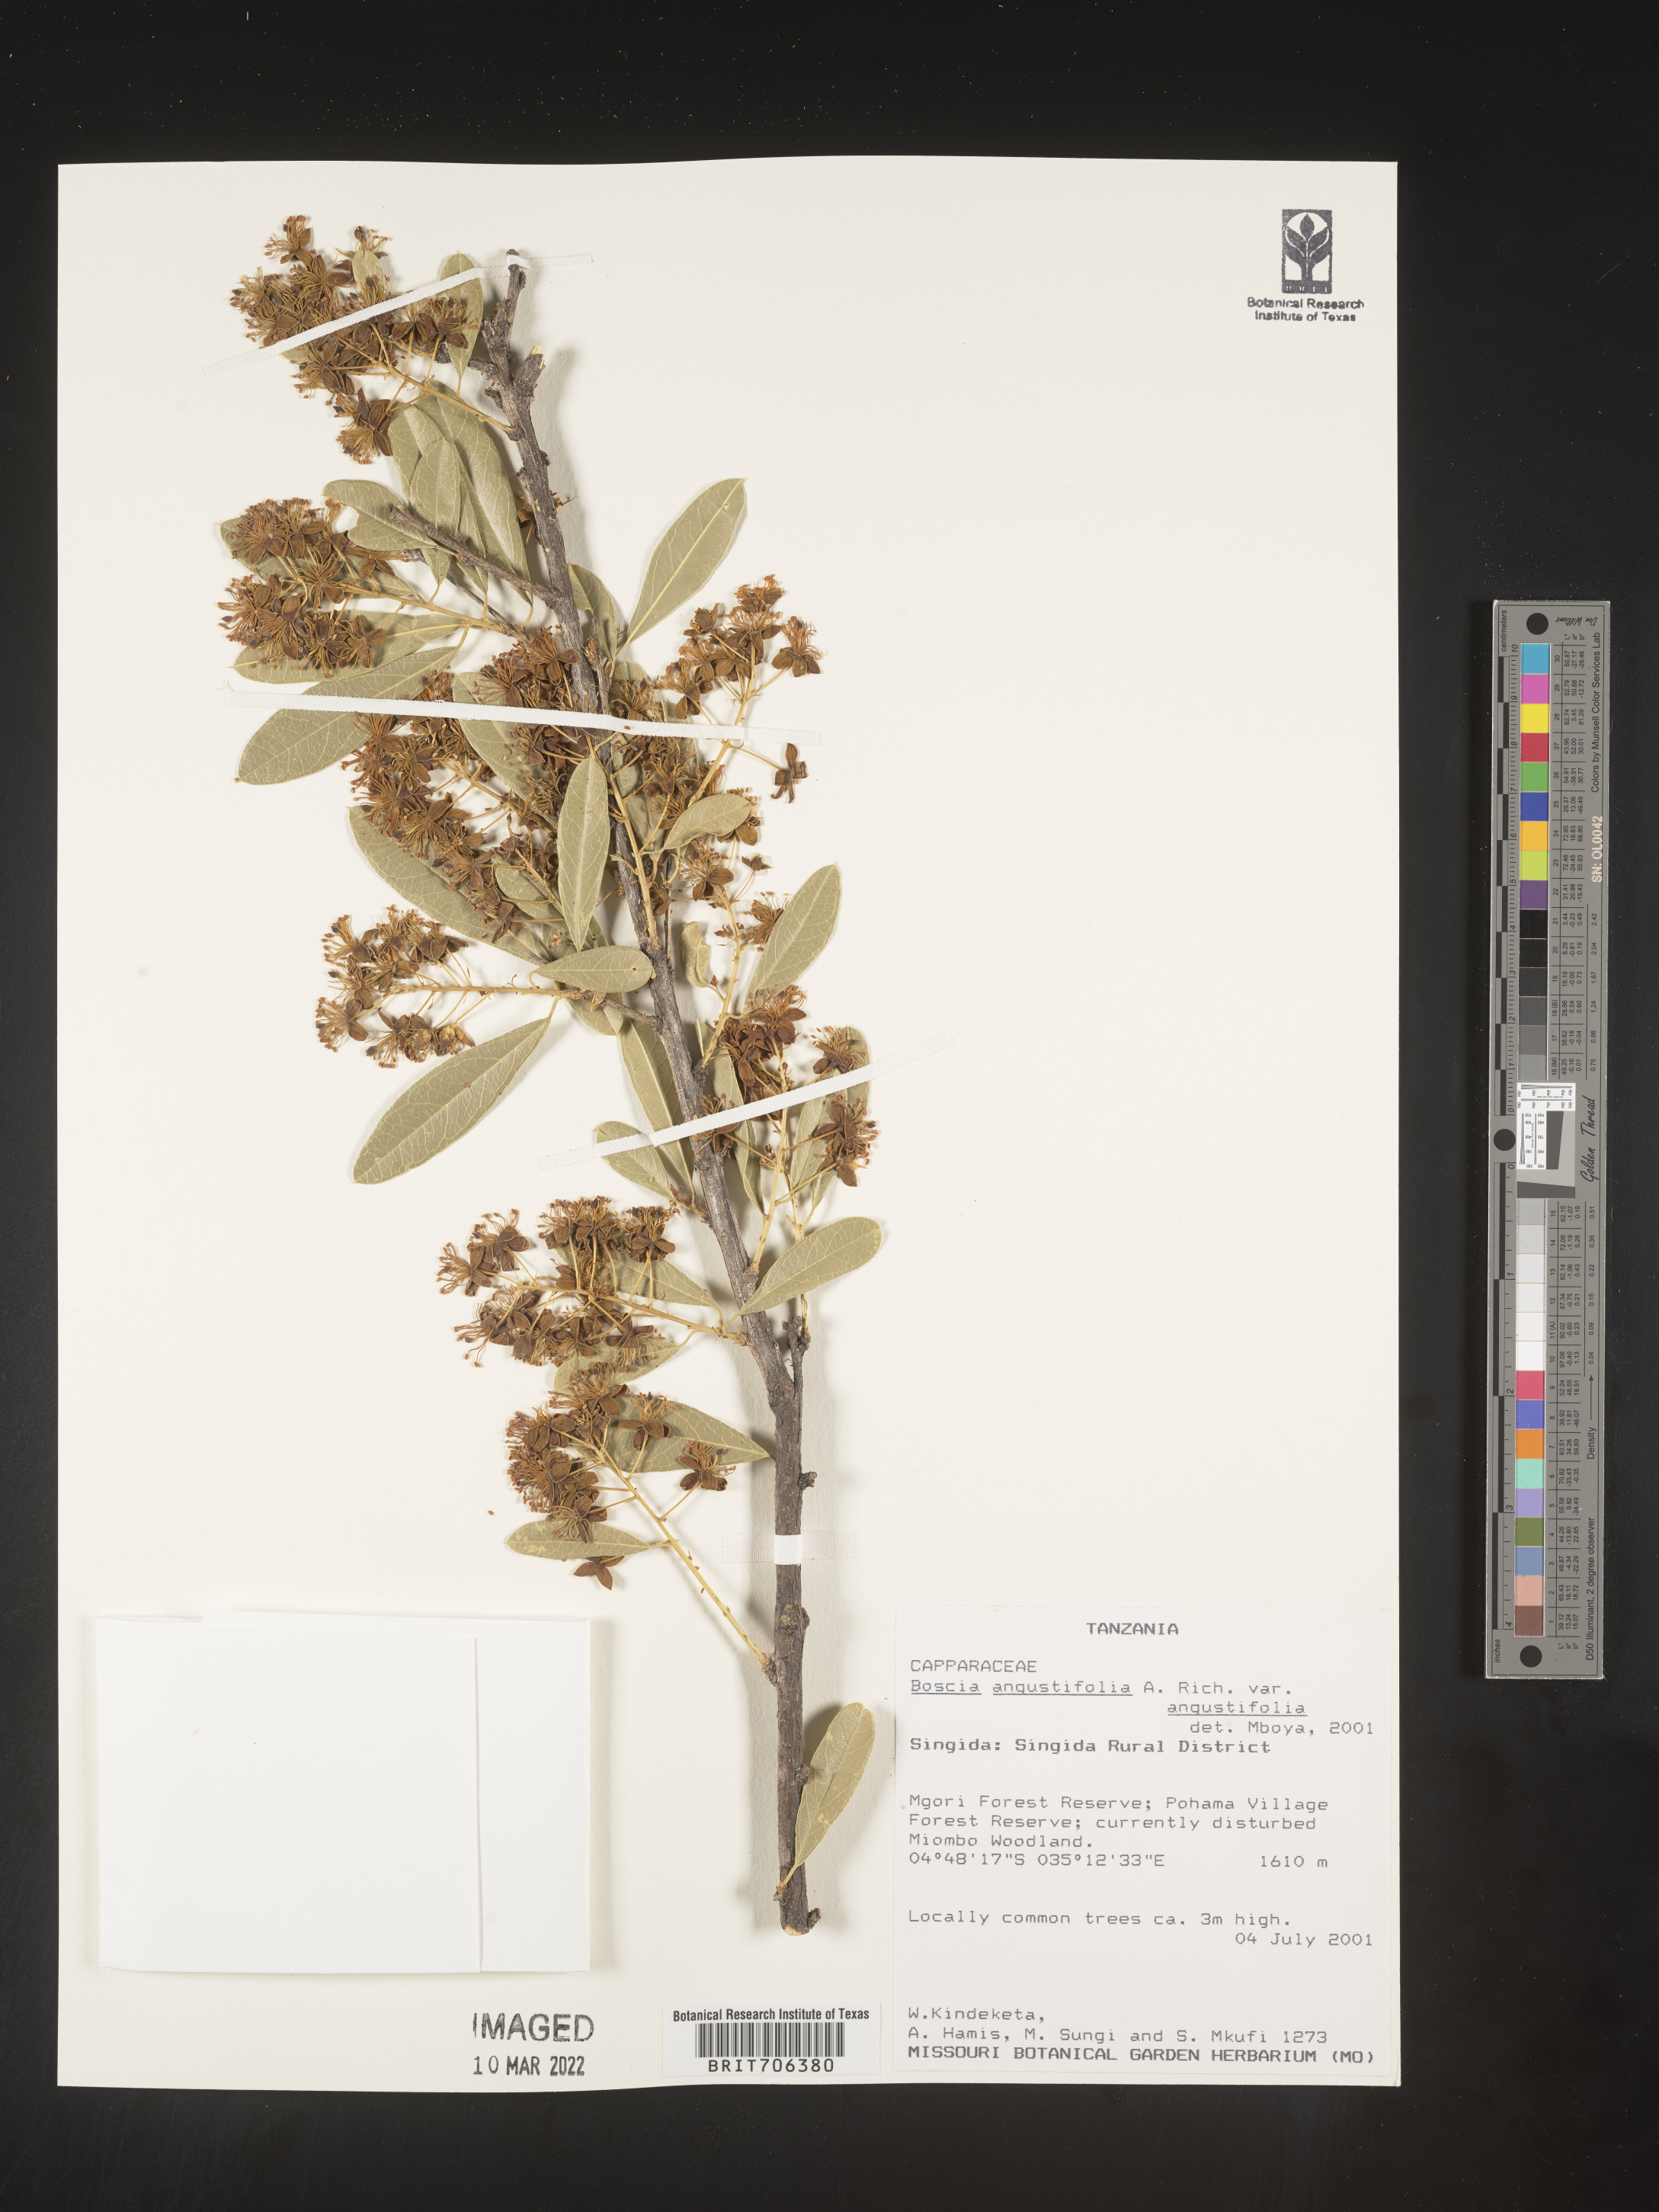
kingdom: Plantae
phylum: Tracheophyta
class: Magnoliopsida
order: Brassicales
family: Capparaceae
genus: Boscia
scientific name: Boscia
